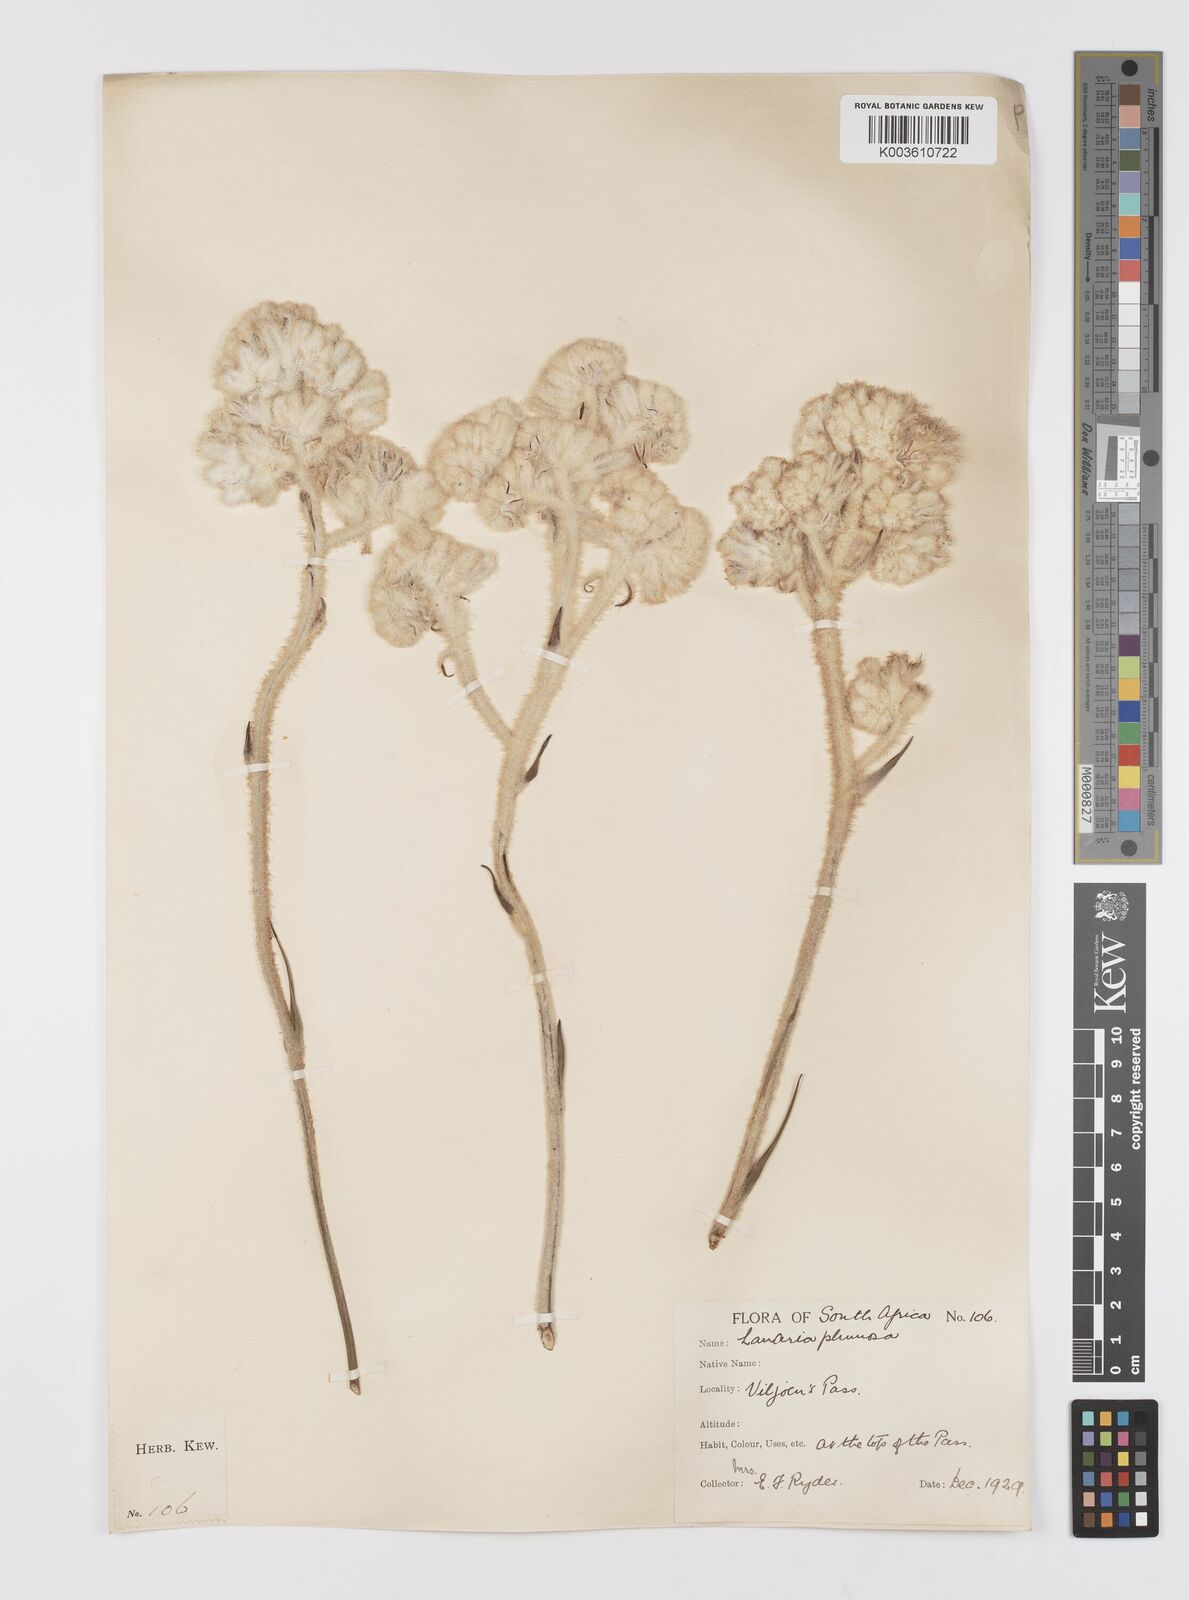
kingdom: Plantae
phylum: Tracheophyta
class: Liliopsida
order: Asparagales
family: Lanariaceae
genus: Lanaria
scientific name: Lanaria lanata
